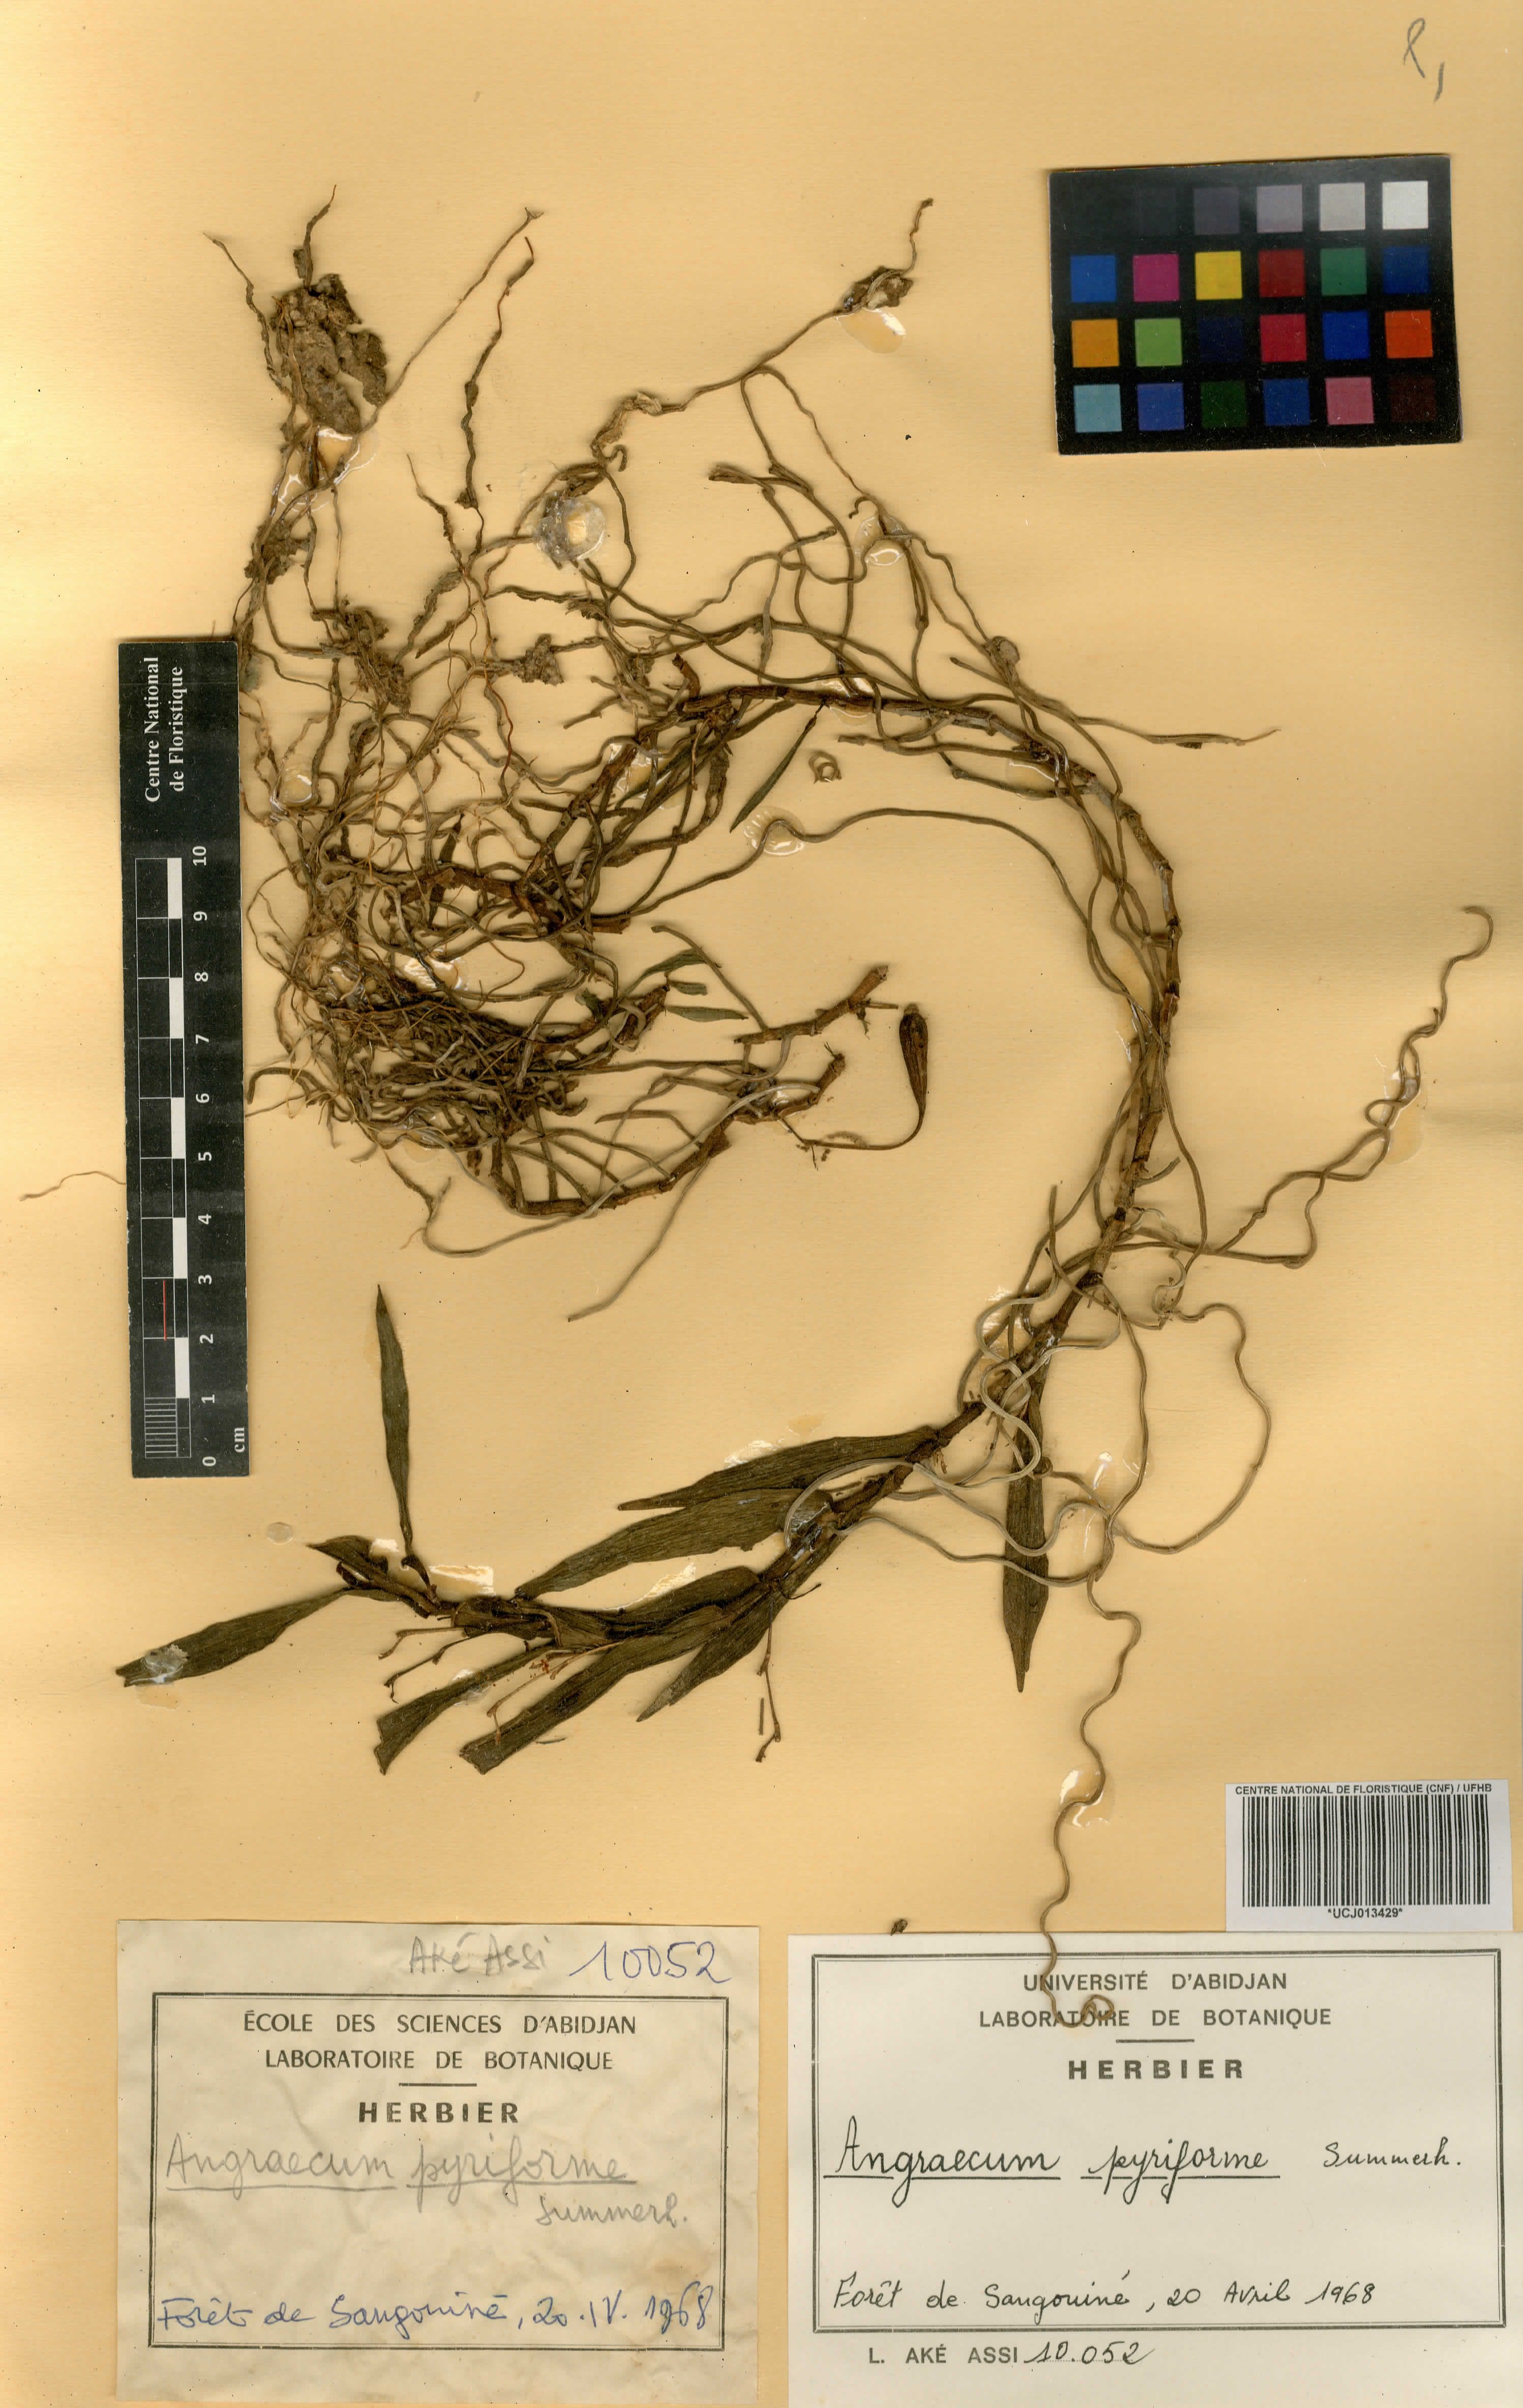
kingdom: Plantae
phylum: Tracheophyta
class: Liliopsida
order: Asparagales
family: Orchidaceae
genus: Angraecum
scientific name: Angraecum pyriforme
